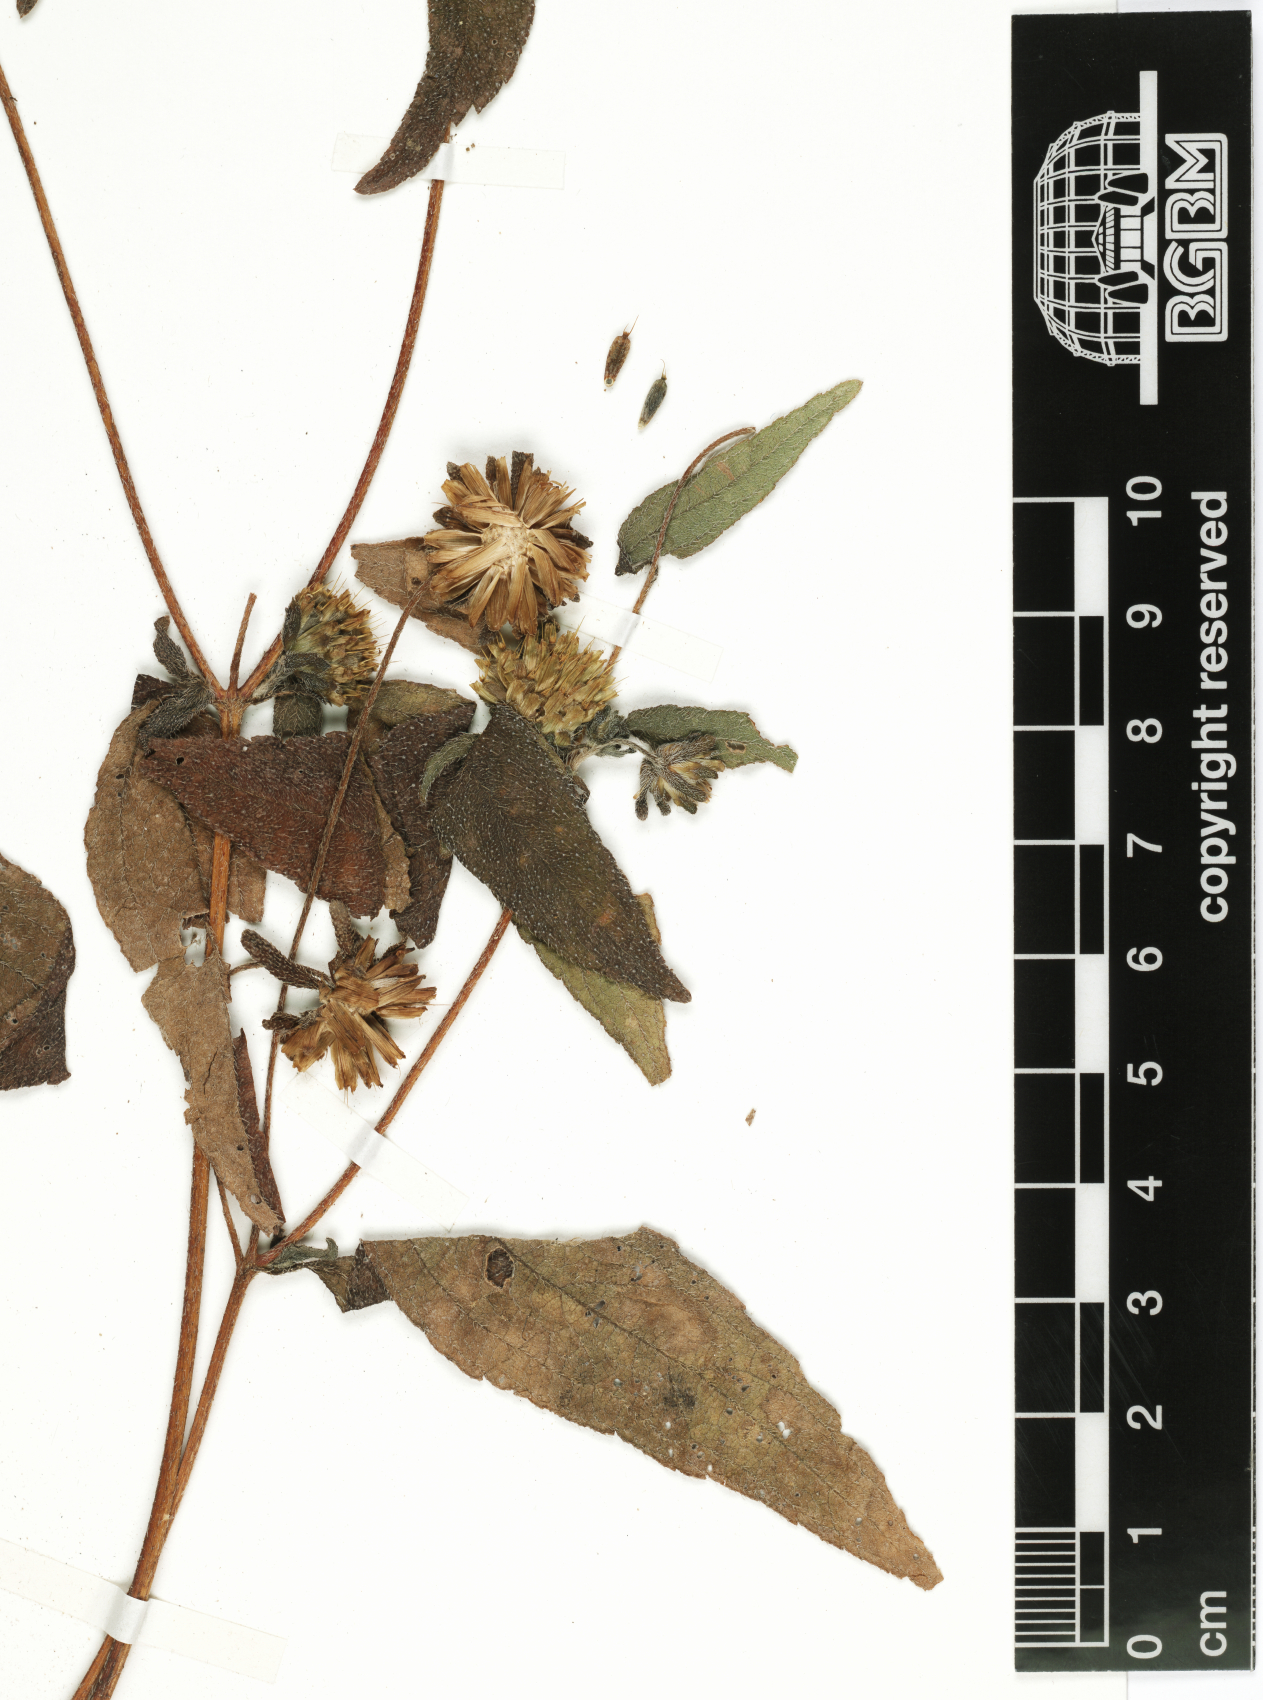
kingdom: Plantae
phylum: Tracheophyta
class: Magnoliopsida
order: Asterales
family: Asteraceae
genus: Aspilia
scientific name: Aspilia helianthoides
